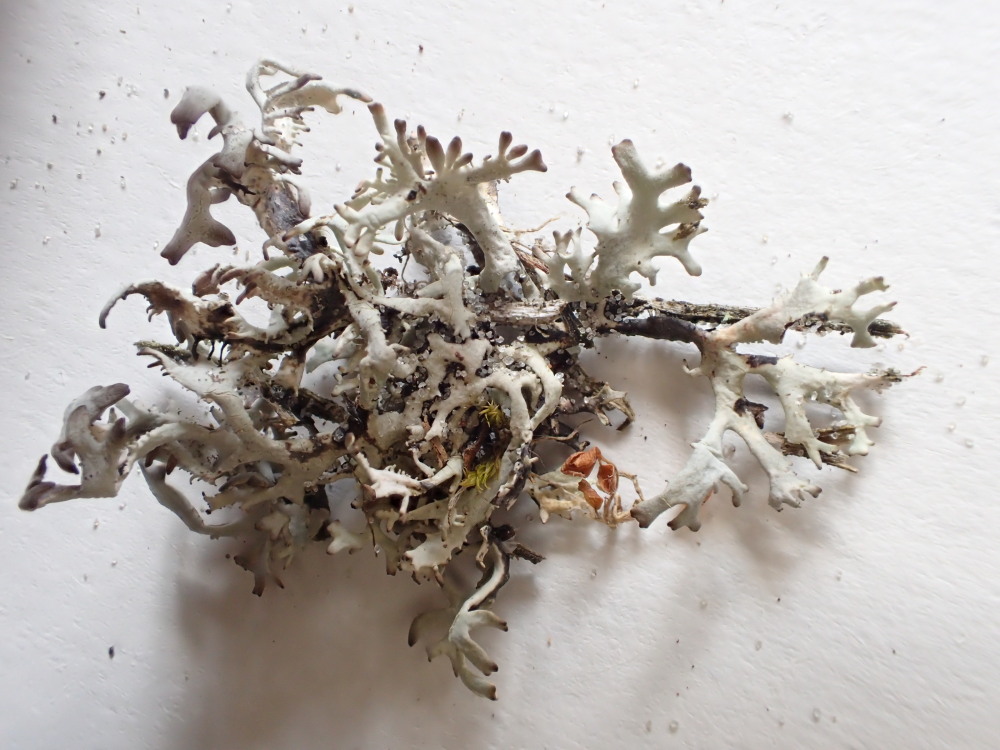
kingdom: Fungi
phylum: Ascomycota
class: Lecanoromycetes
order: Lecanorales
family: Parmeliaceae
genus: Pseudevernia
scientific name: Pseudevernia furfuracea
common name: grå fyrrelav
